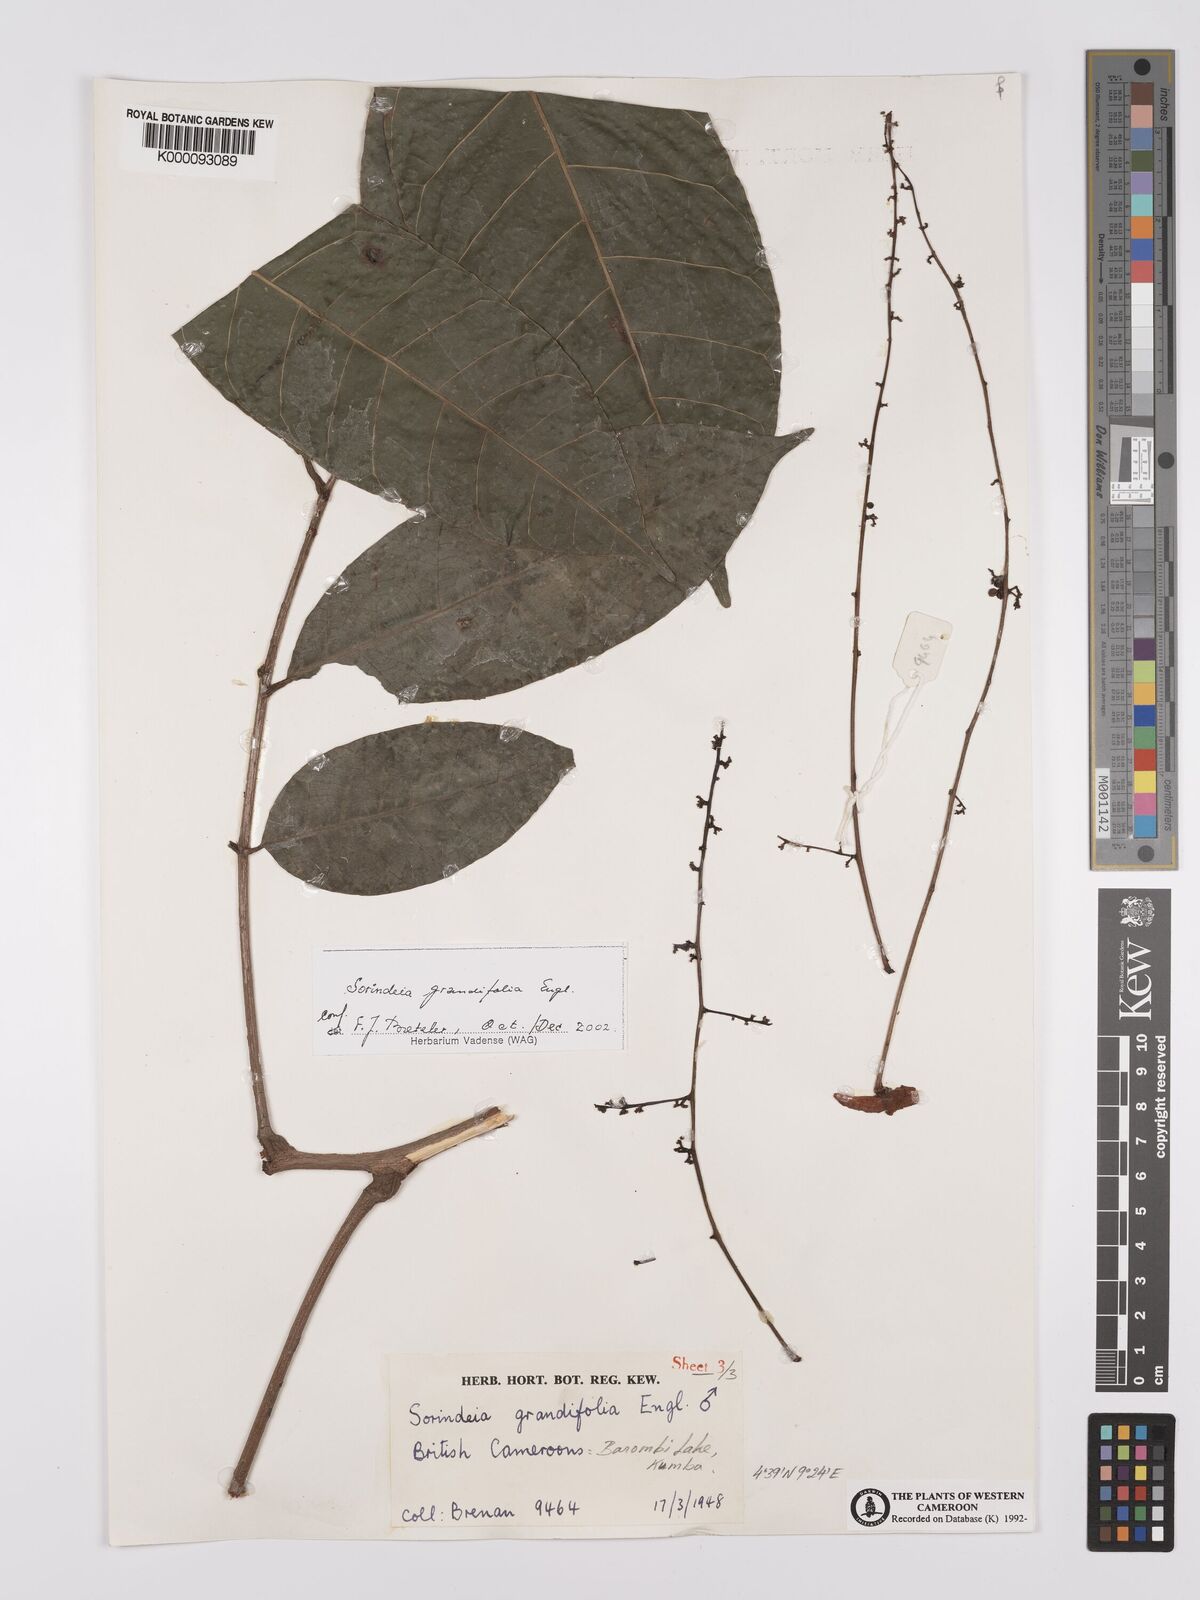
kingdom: Plantae
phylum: Tracheophyta
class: Magnoliopsida
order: Sapindales
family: Anacardiaceae
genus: Sorindeia
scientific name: Sorindeia grandifolia
